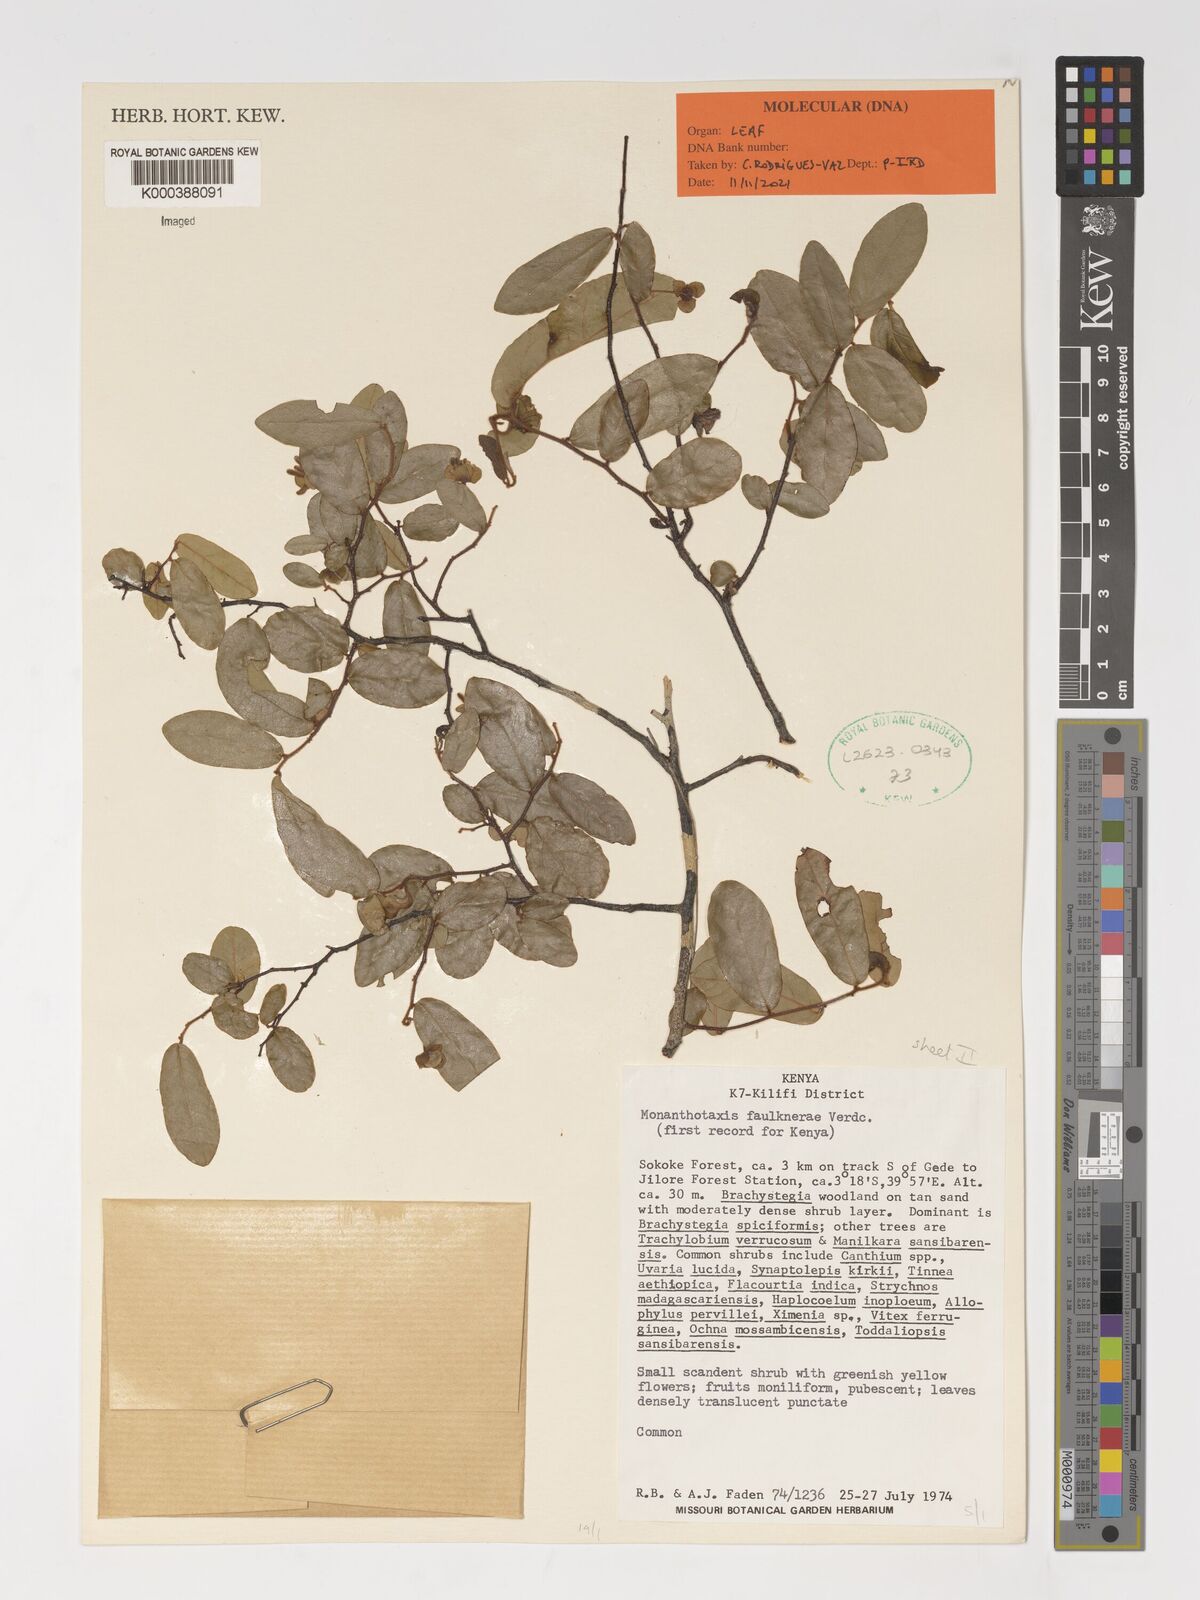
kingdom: Plantae
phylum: Tracheophyta
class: Magnoliopsida
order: Magnoliales
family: Annonaceae
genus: Monanthotaxis
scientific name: Monanthotaxis faulknerae
